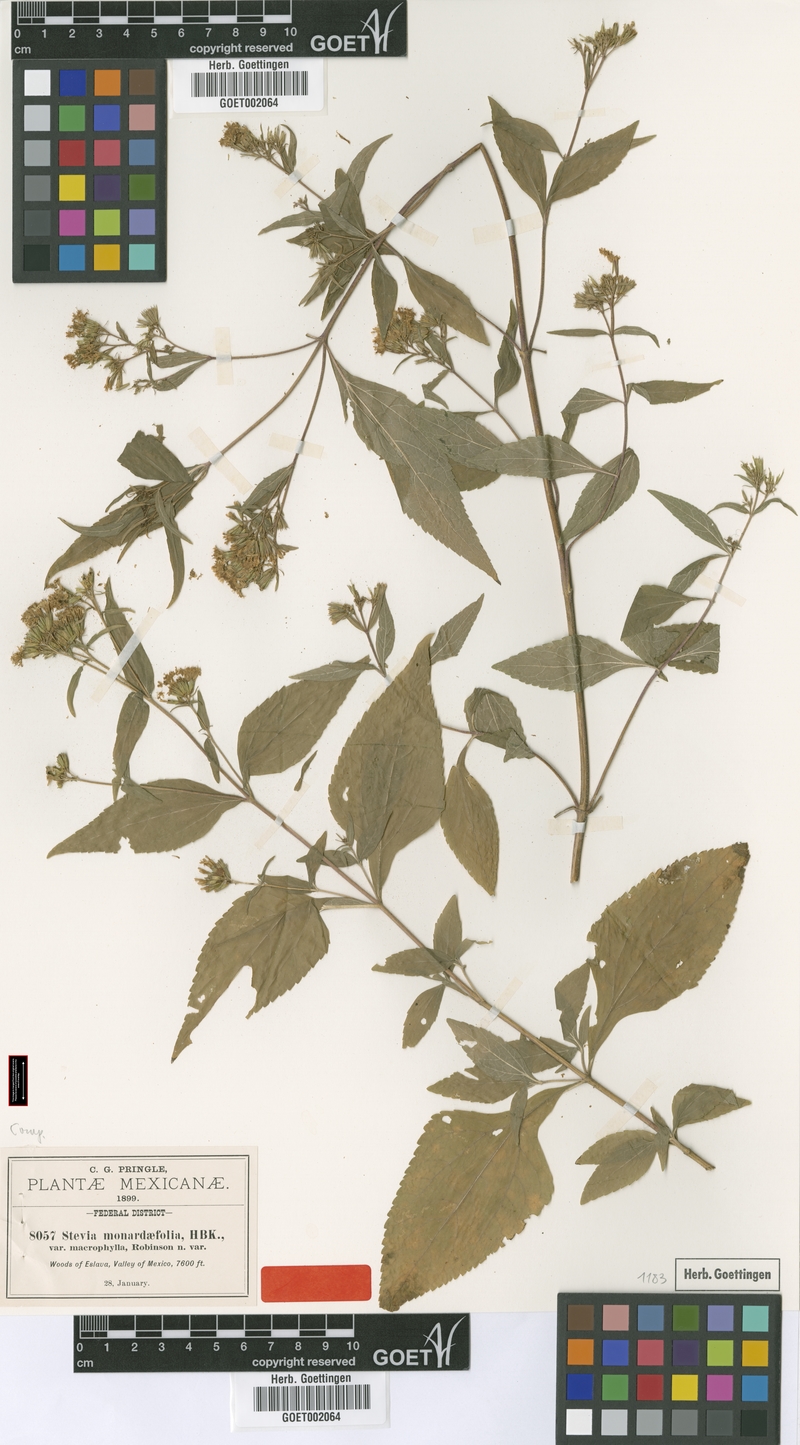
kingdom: Plantae
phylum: Tracheophyta
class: Magnoliopsida
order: Asterales
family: Asteraceae
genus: Stevia
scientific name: Stevia monardifolia
